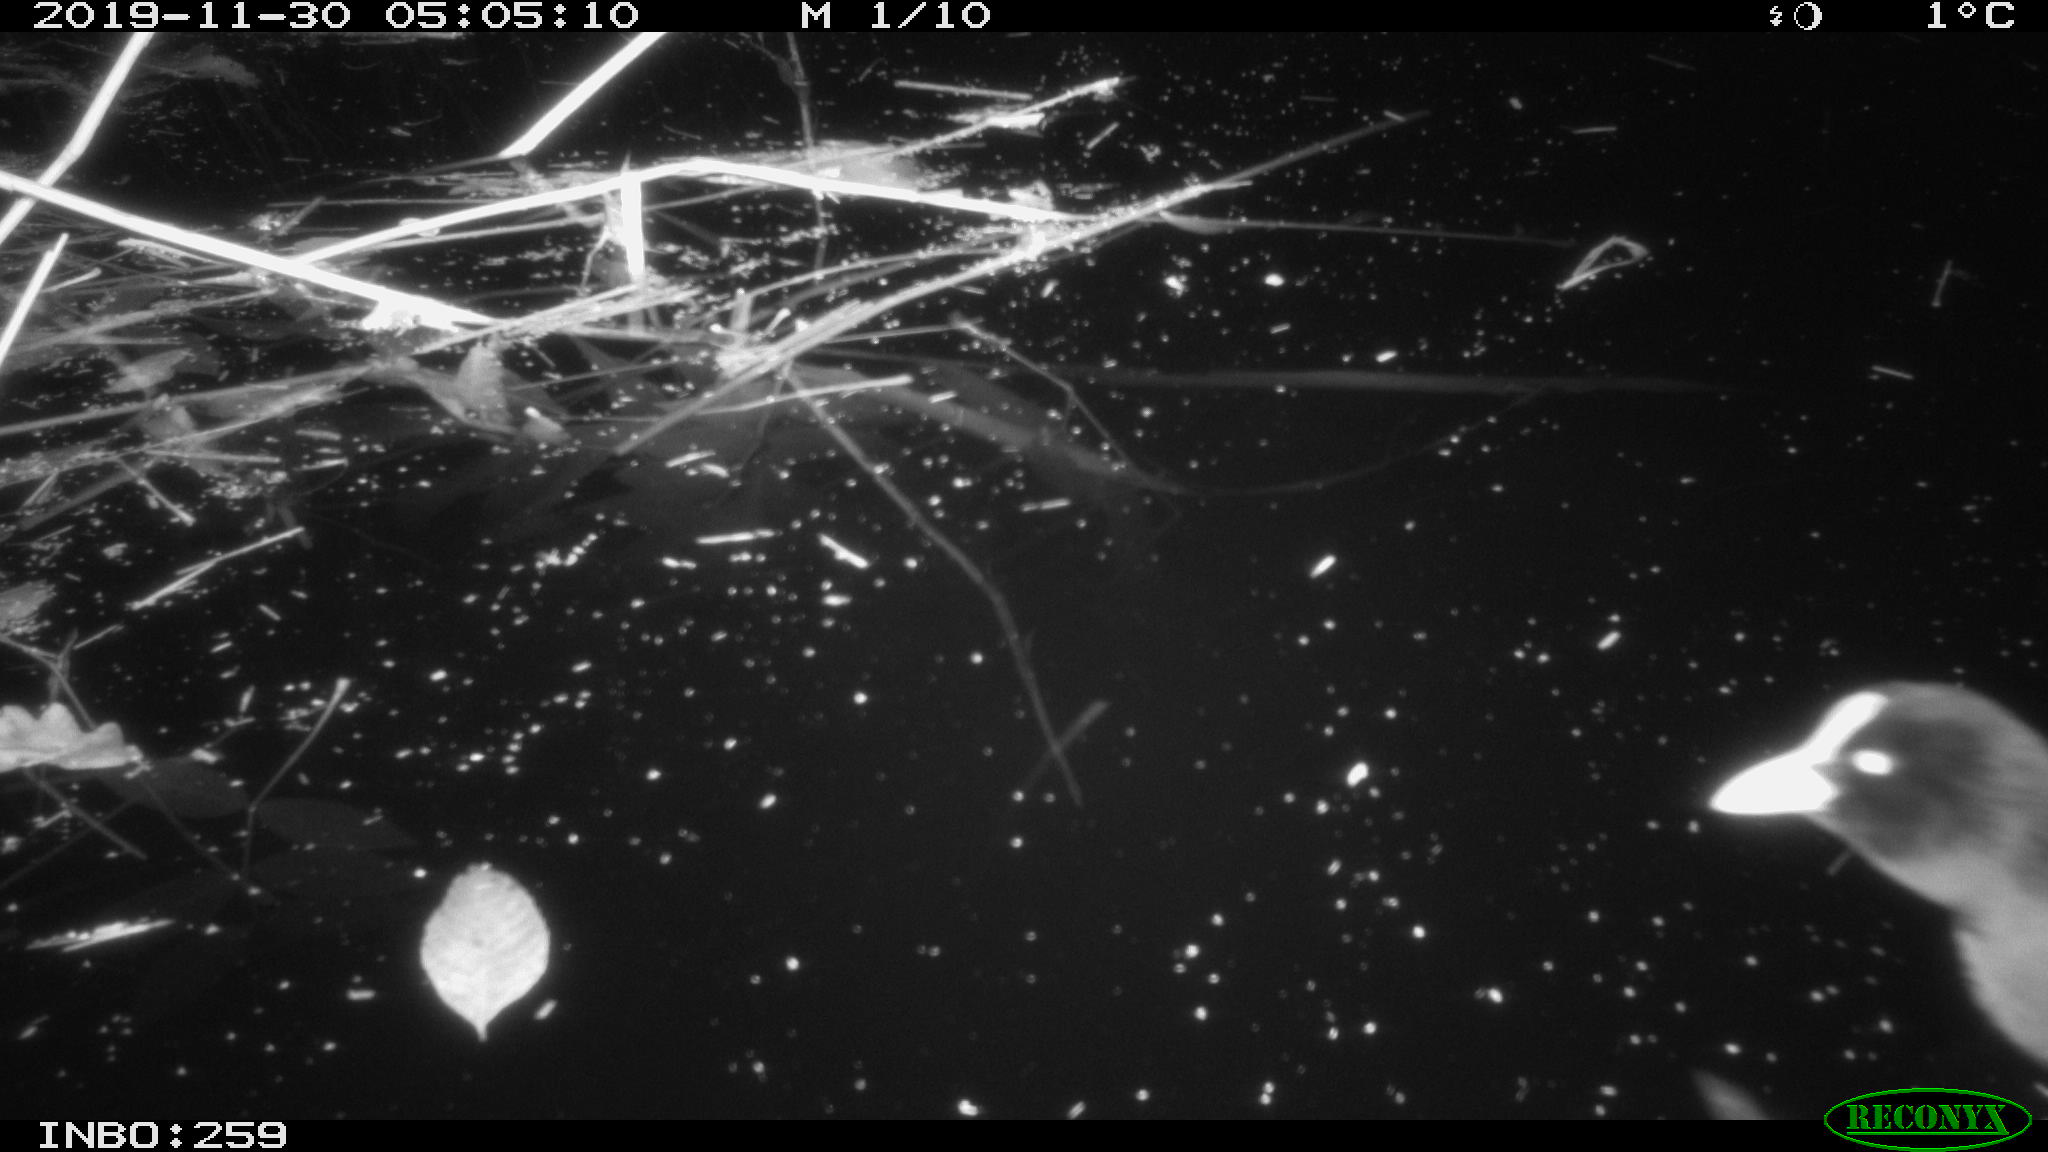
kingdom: Animalia
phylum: Chordata
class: Aves
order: Gruiformes
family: Rallidae
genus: Gallinula
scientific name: Gallinula chloropus
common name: Common moorhen
